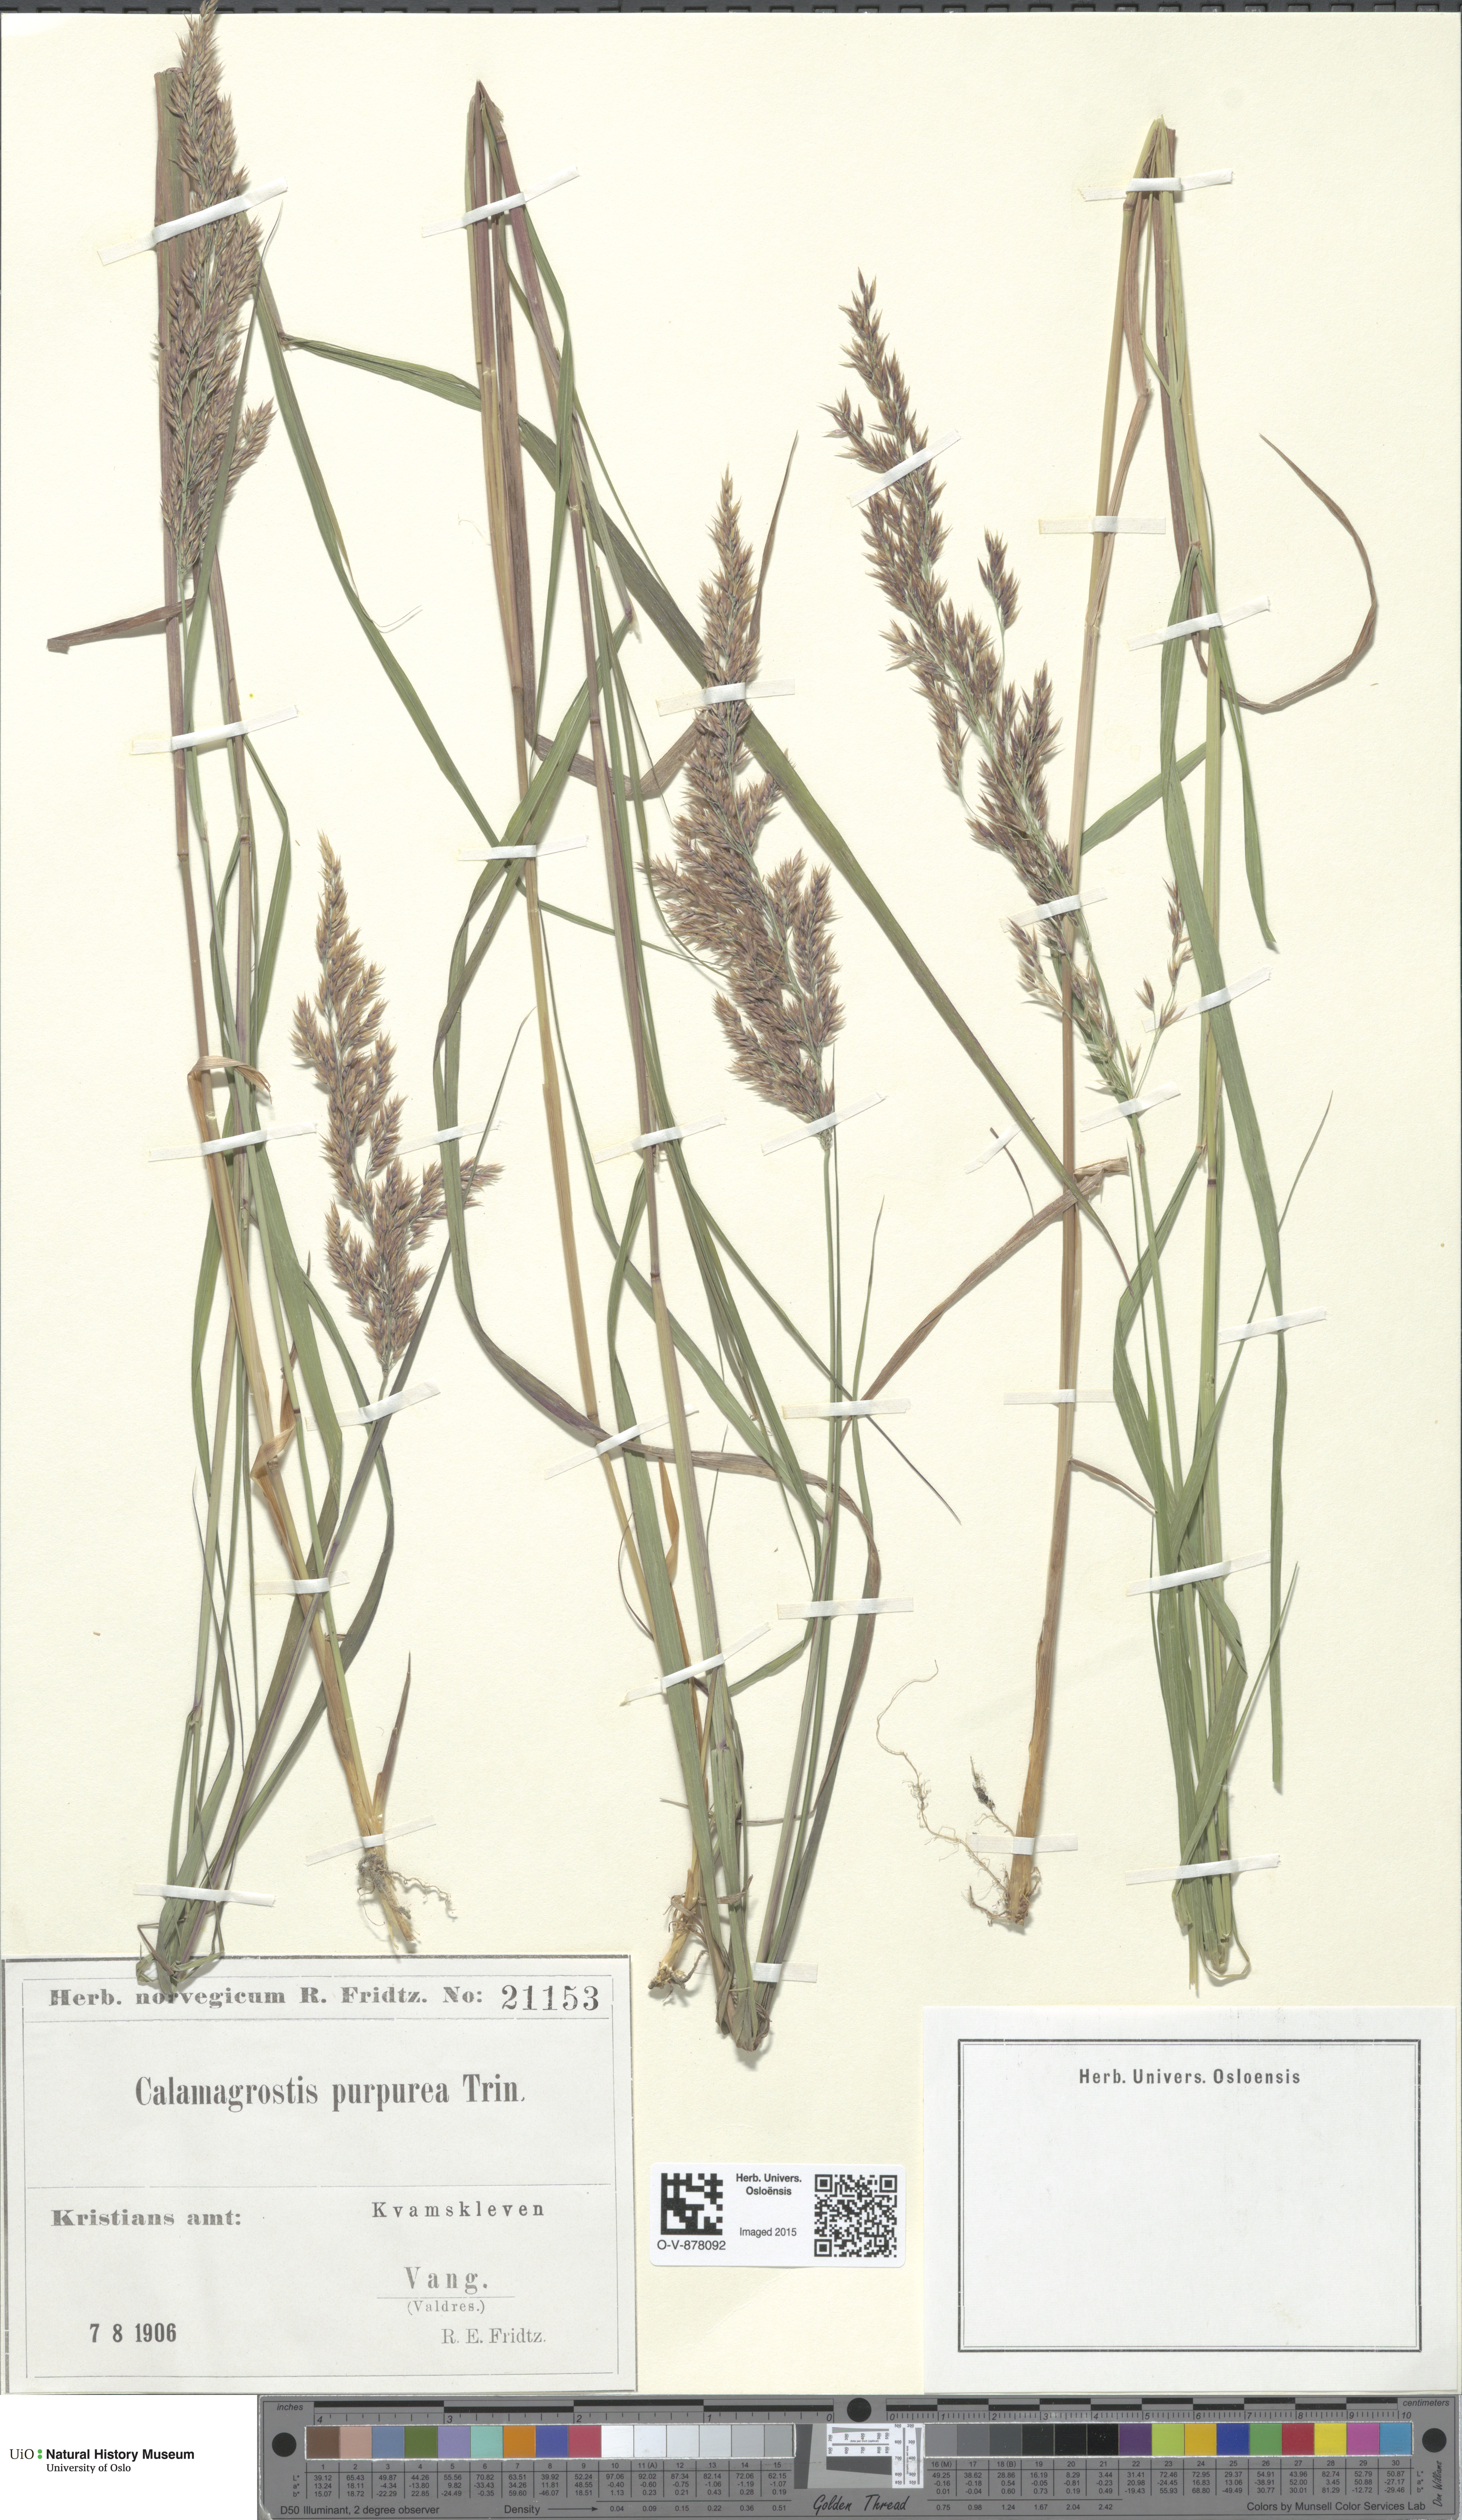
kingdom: Plantae
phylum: Tracheophyta
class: Liliopsida
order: Poales
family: Poaceae
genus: Calamagrostis
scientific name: Calamagrostis purpurea
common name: Scandinavian small-reed
